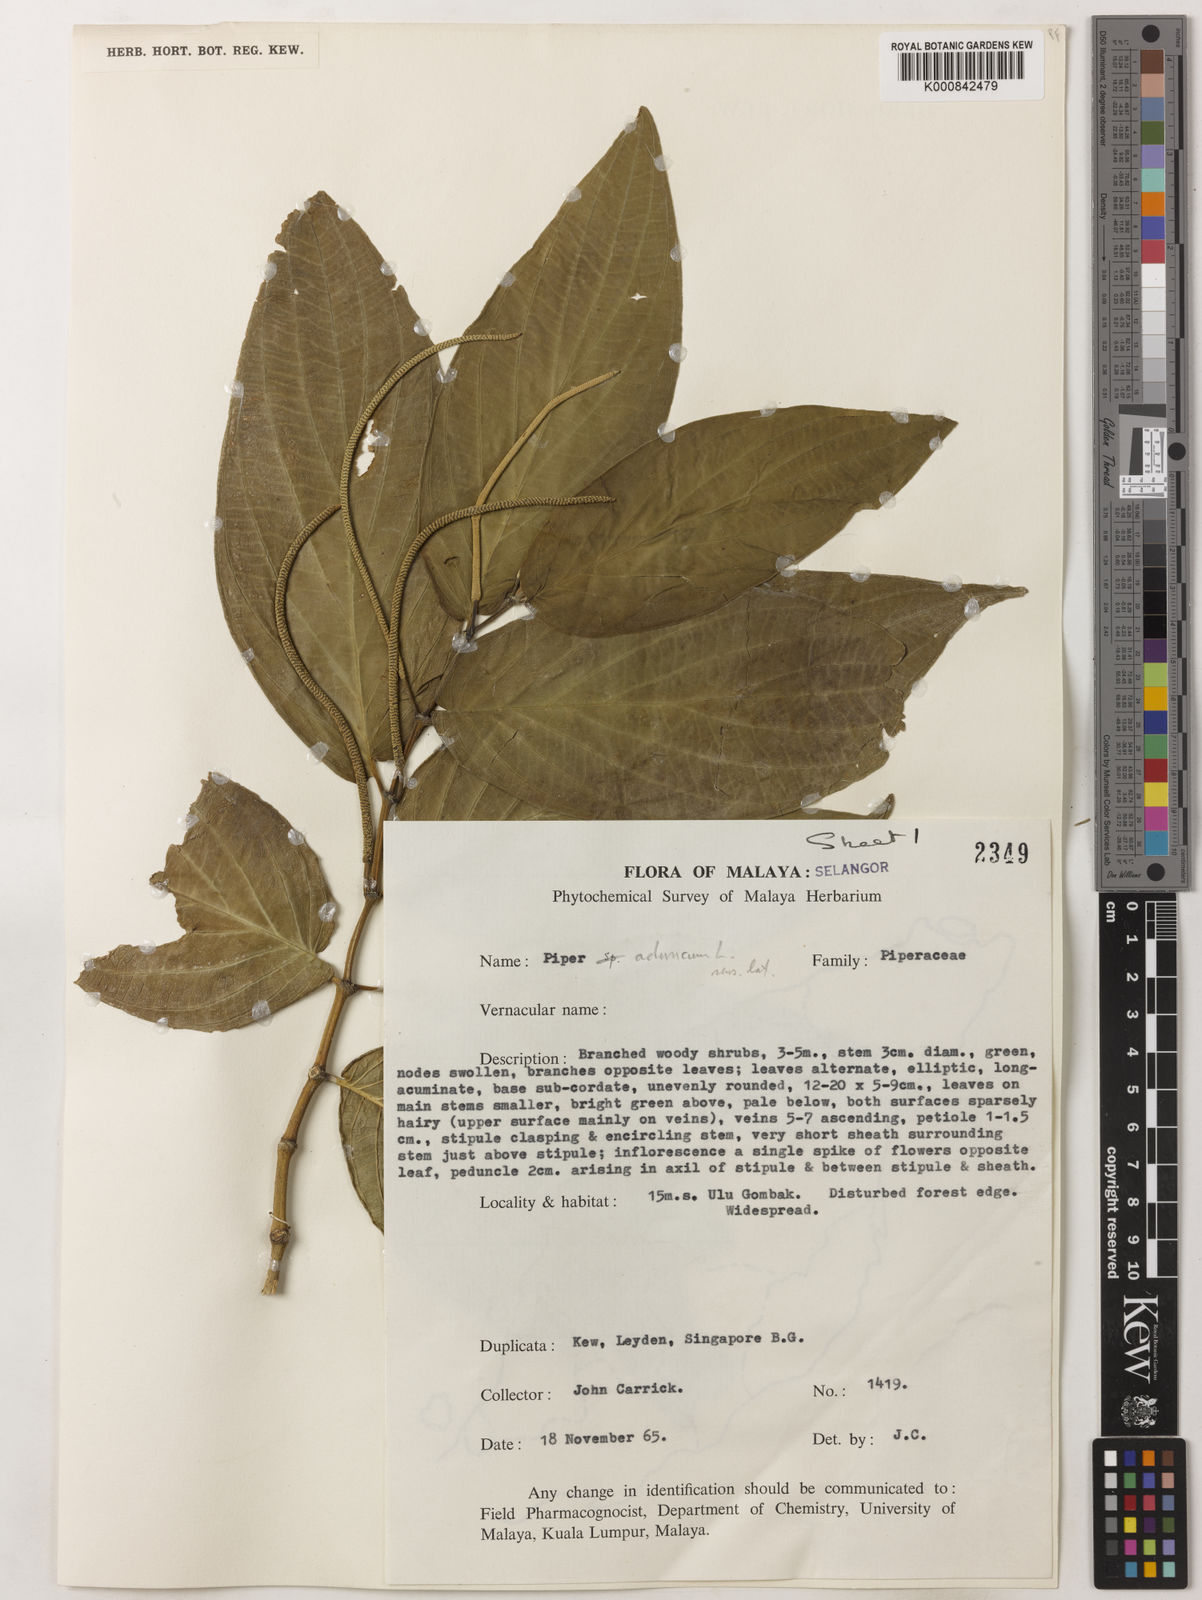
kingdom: Plantae
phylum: Tracheophyta
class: Magnoliopsida
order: Piperales
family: Piperaceae
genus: Piper
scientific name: Piper aduncum
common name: Spiked pepper
